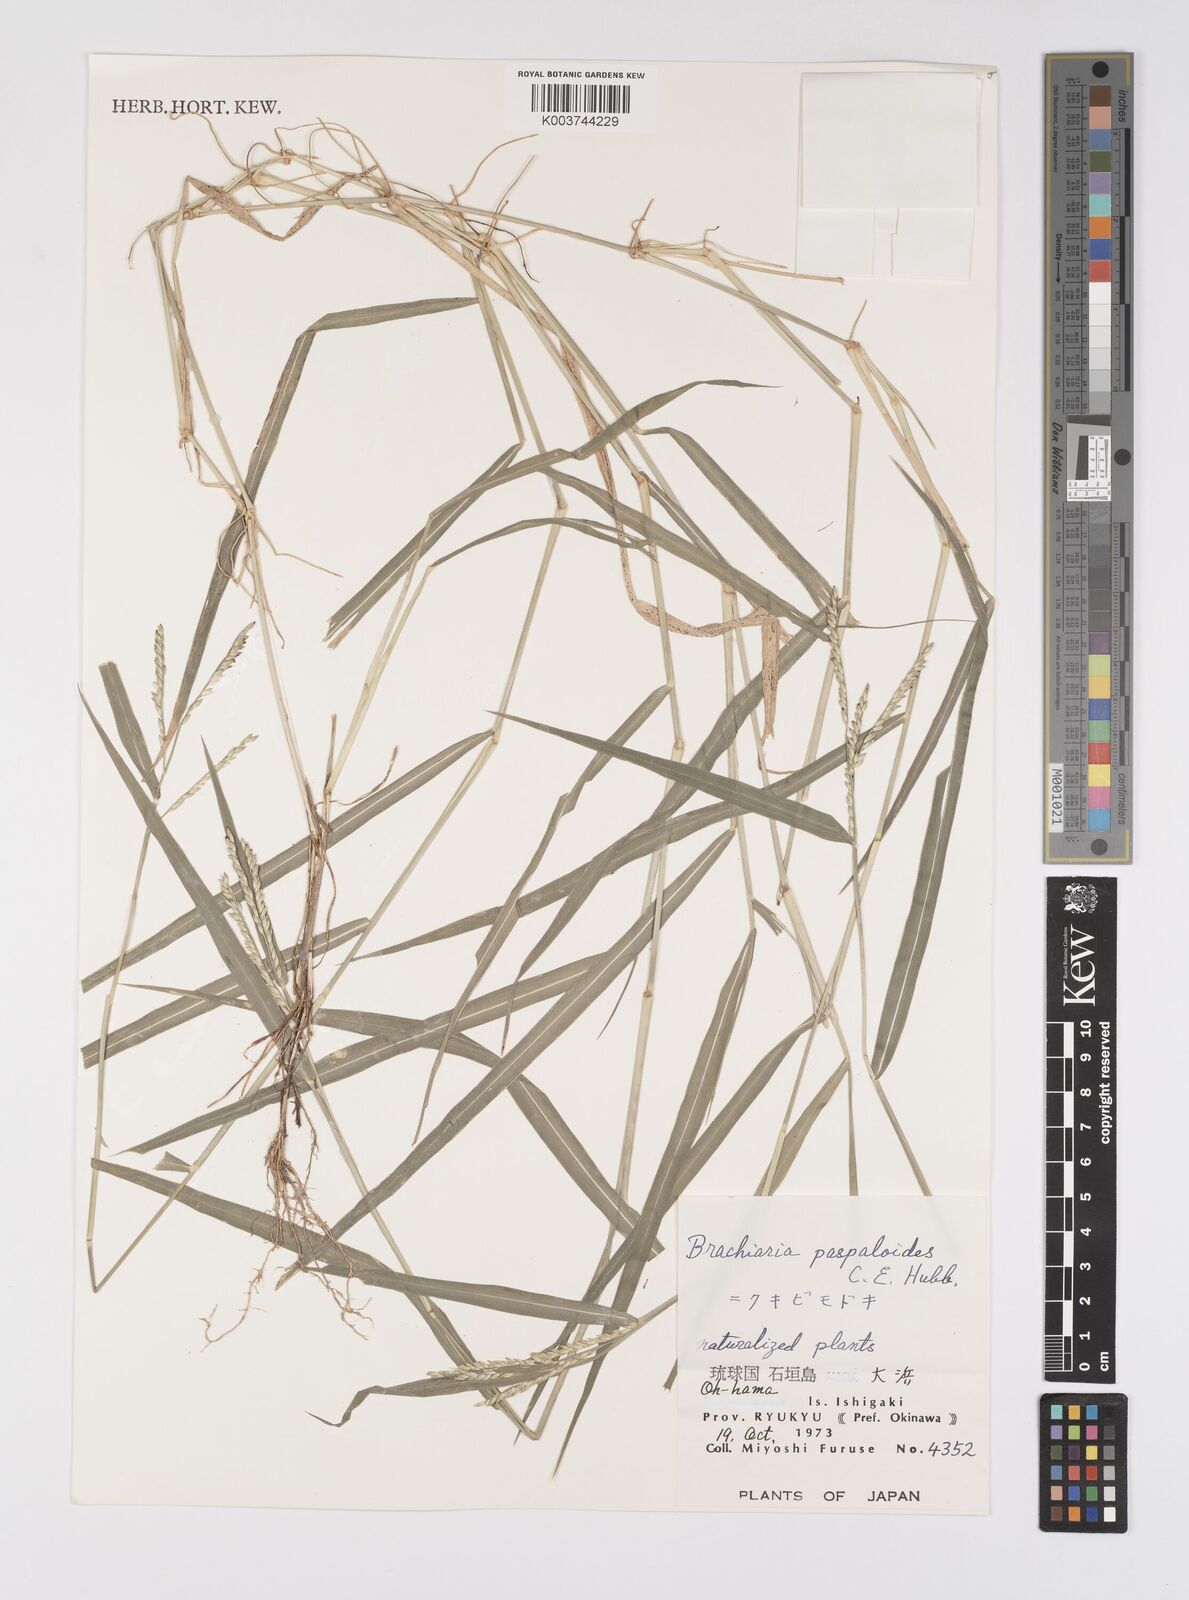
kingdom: Plantae
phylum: Tracheophyta
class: Liliopsida
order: Poales
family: Poaceae
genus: Urochloa
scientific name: Urochloa glumaris
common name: Thurston grass
